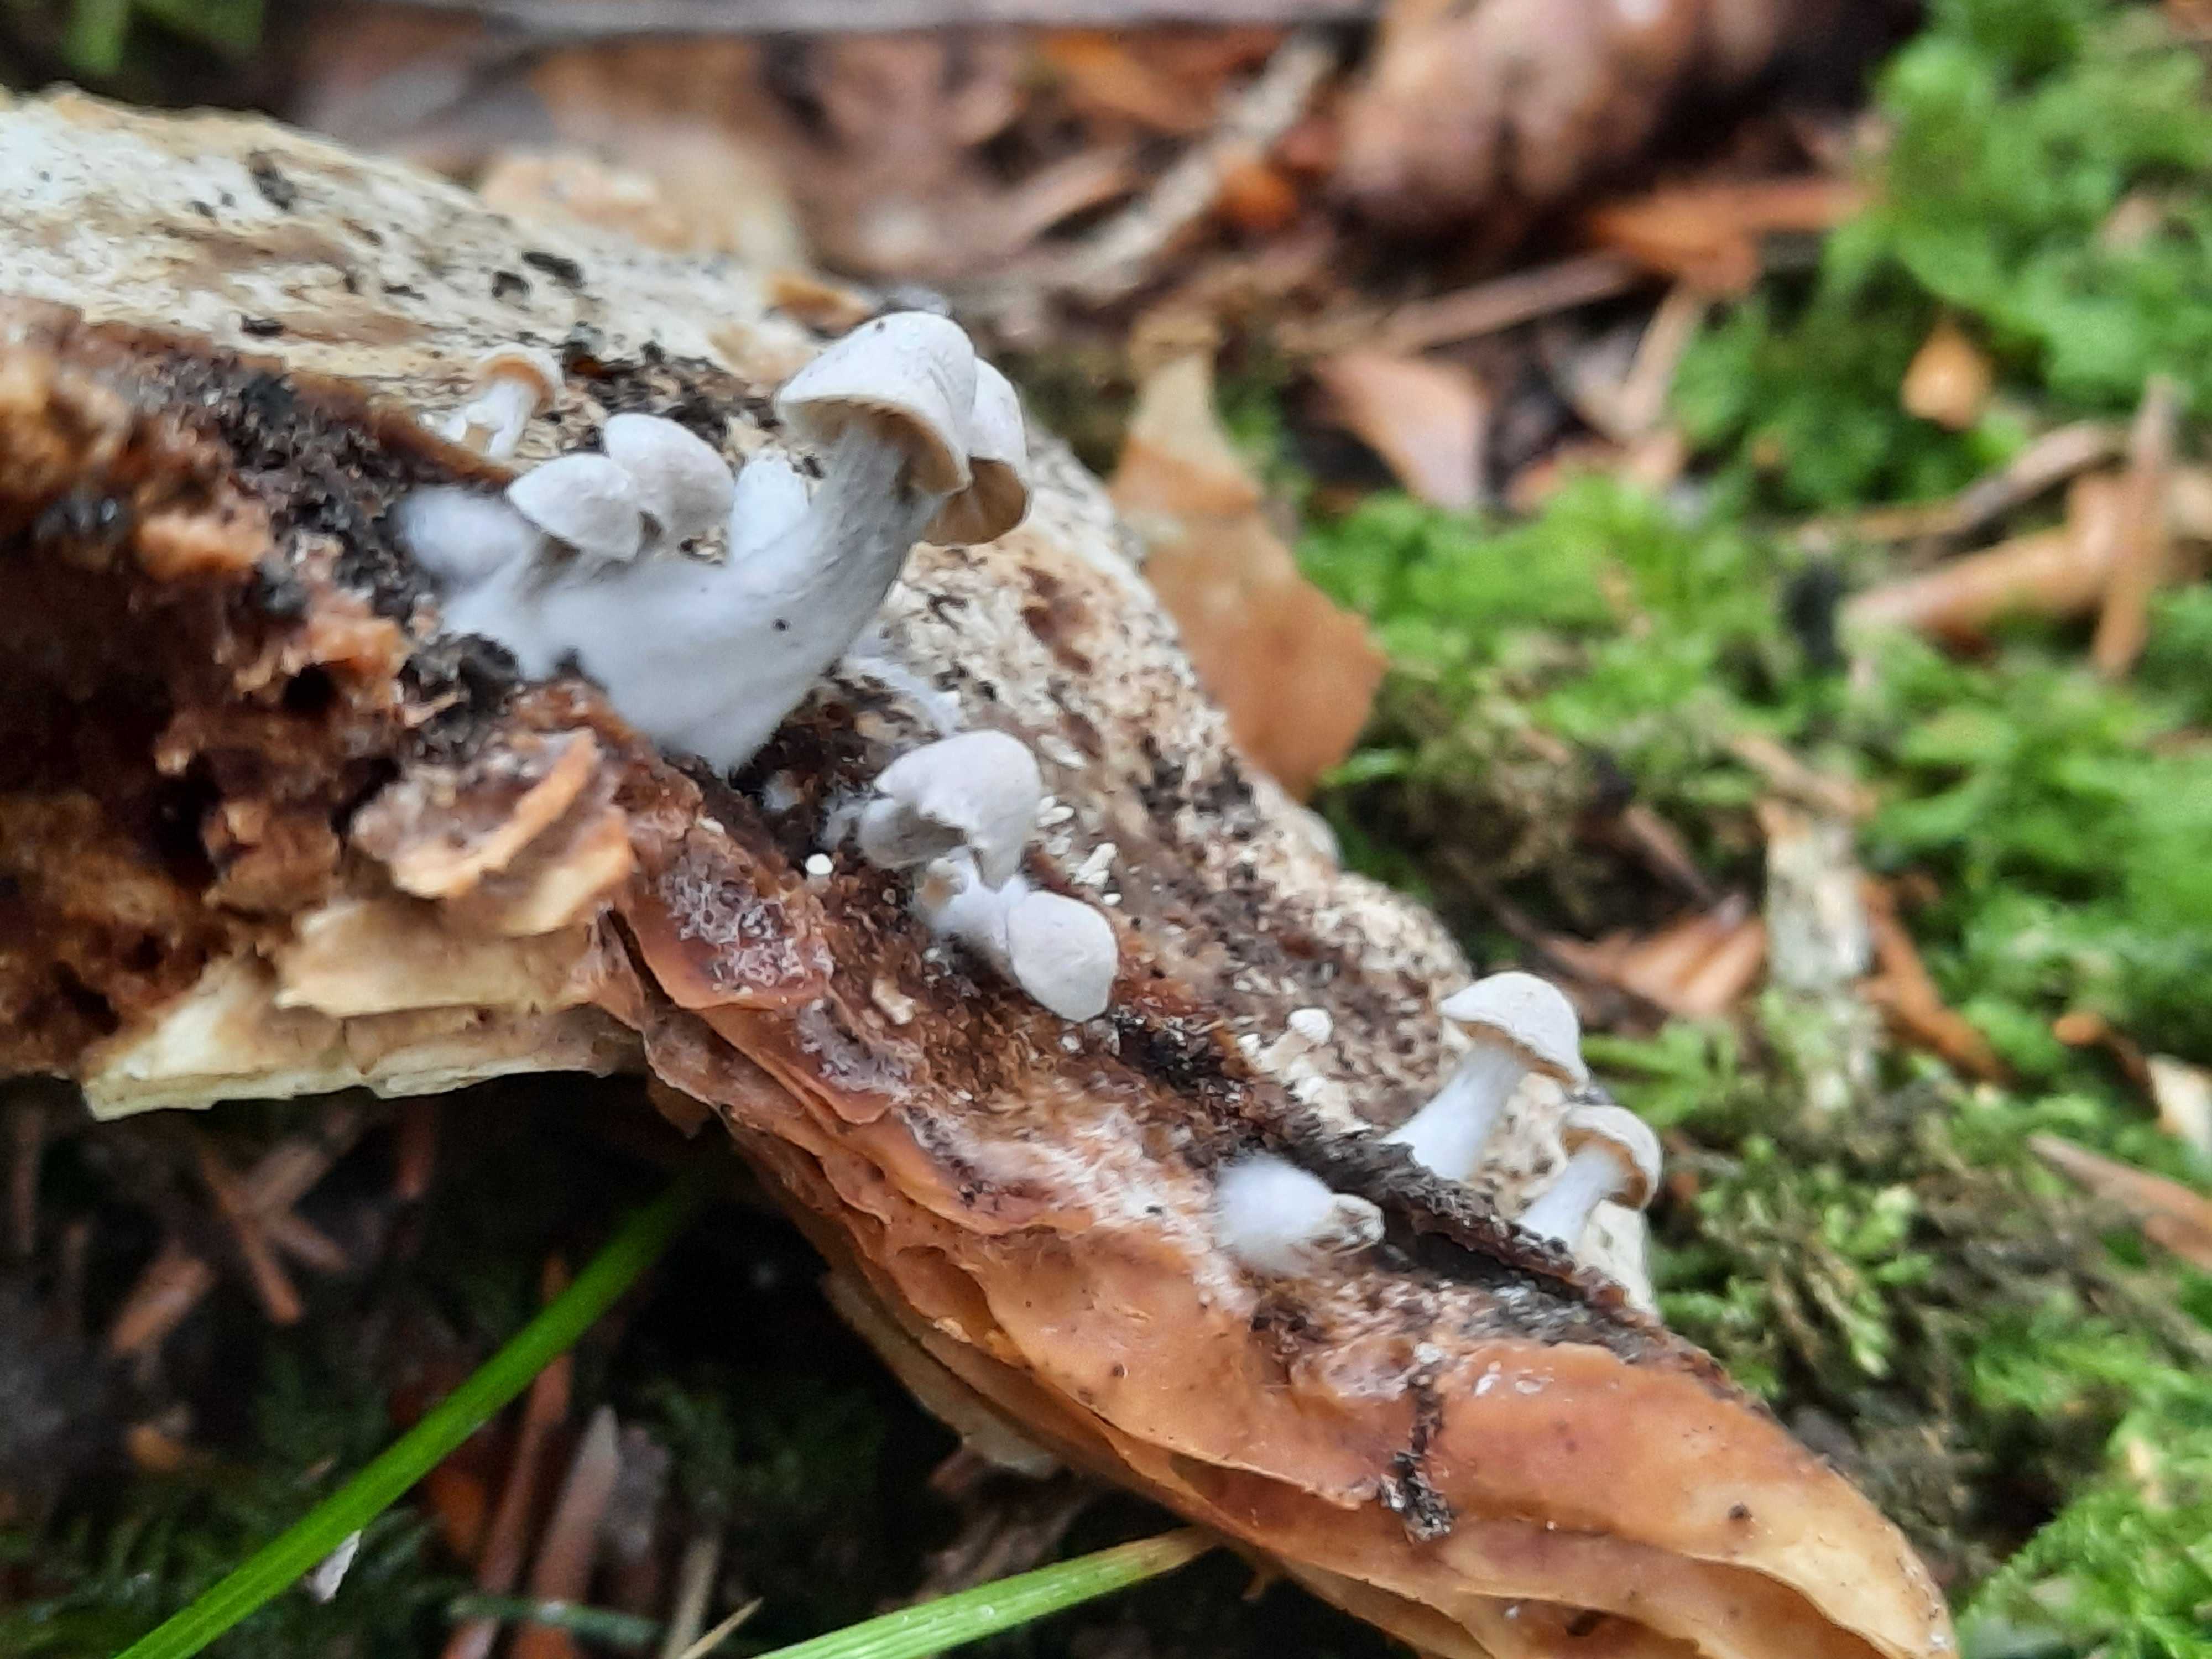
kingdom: Fungi
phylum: Basidiomycota
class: Agaricomycetes
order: Agaricales
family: Lyophyllaceae
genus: Asterophora
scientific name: Asterophora parasitica
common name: grå snyltehat
